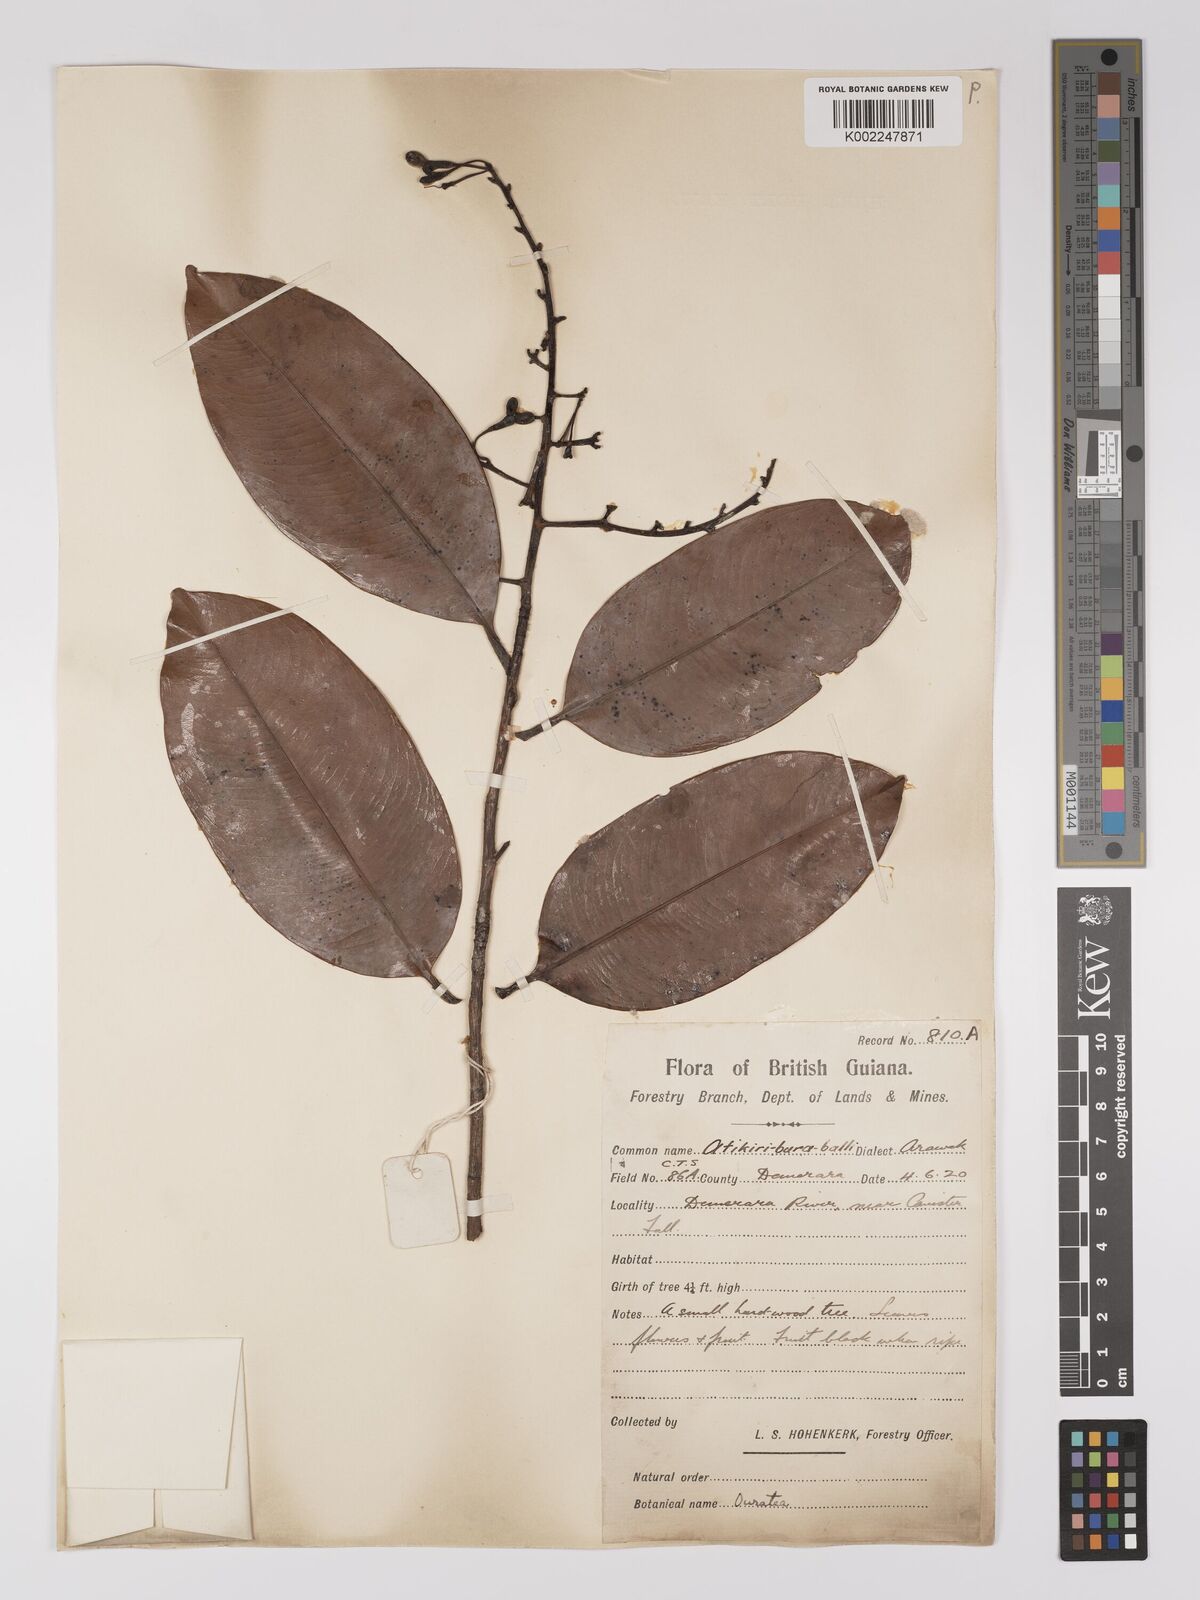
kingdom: Plantae
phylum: Tracheophyta
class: Magnoliopsida
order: Malpighiales
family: Ochnaceae
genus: Ouratea
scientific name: Ouratea
